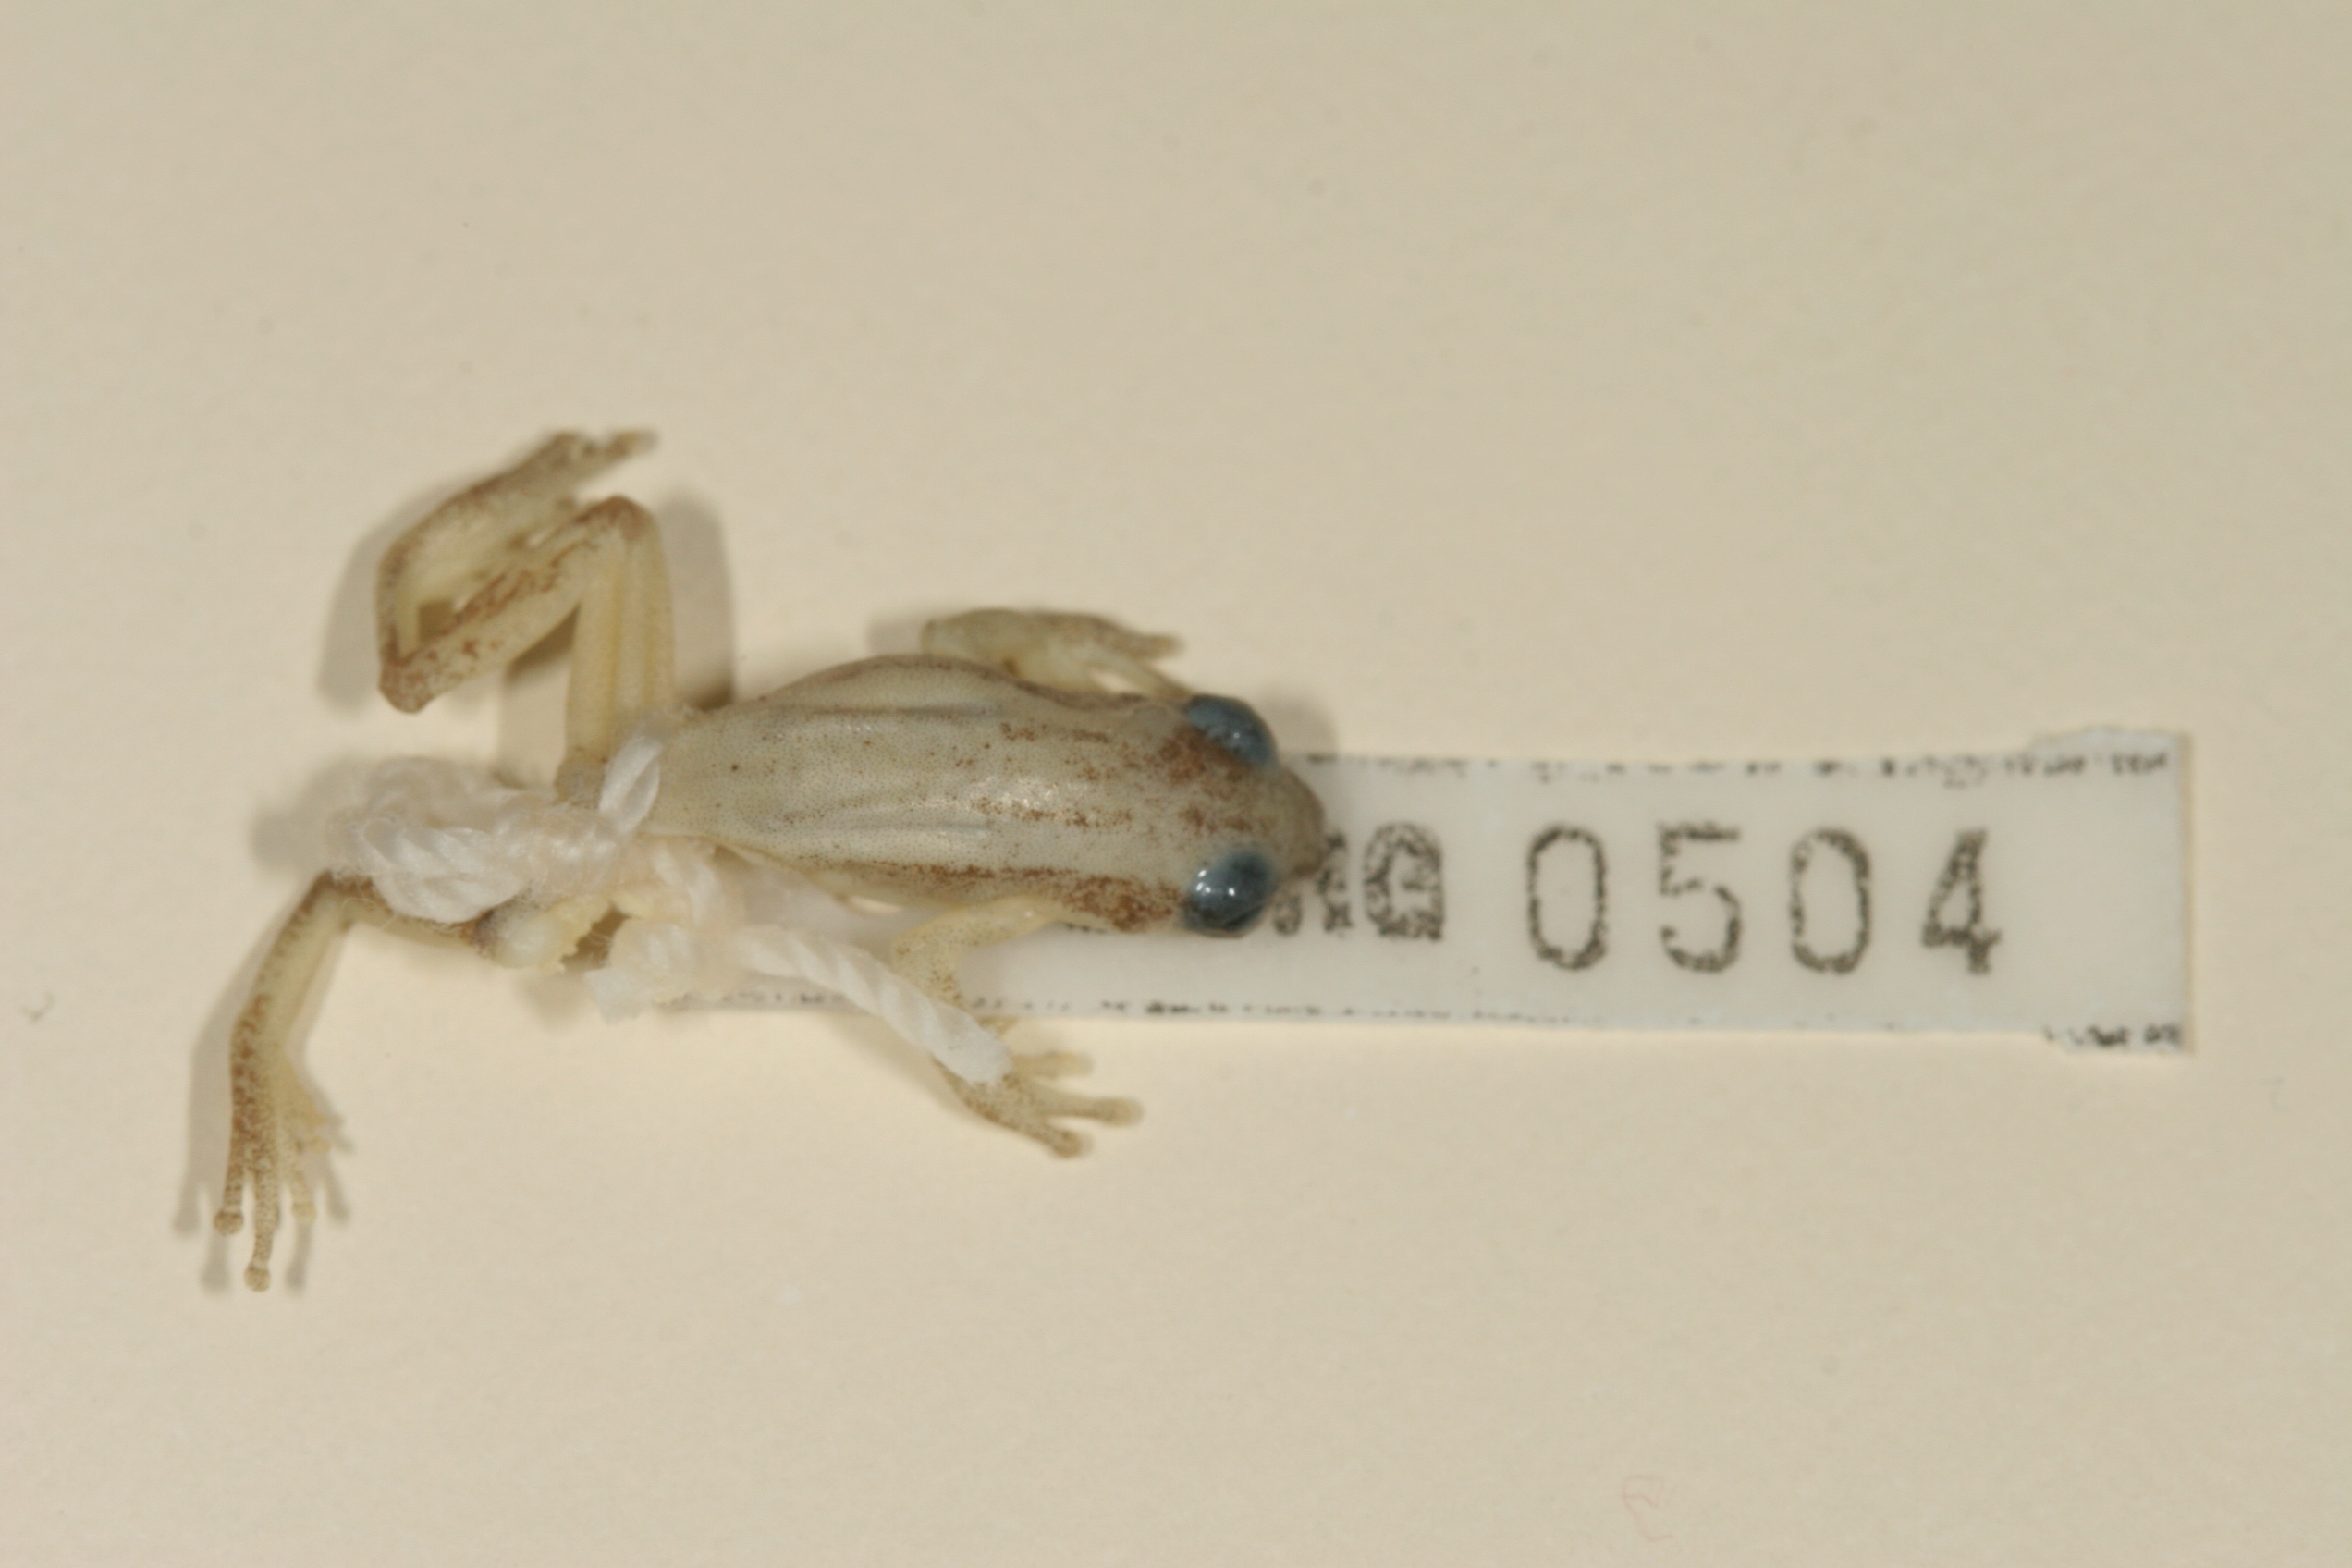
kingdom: Animalia
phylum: Chordata
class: Amphibia
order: Anura
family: Hyperoliidae
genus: Afrixalus
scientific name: Afrixalus delicatus
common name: Delicate leaf-folding frog
